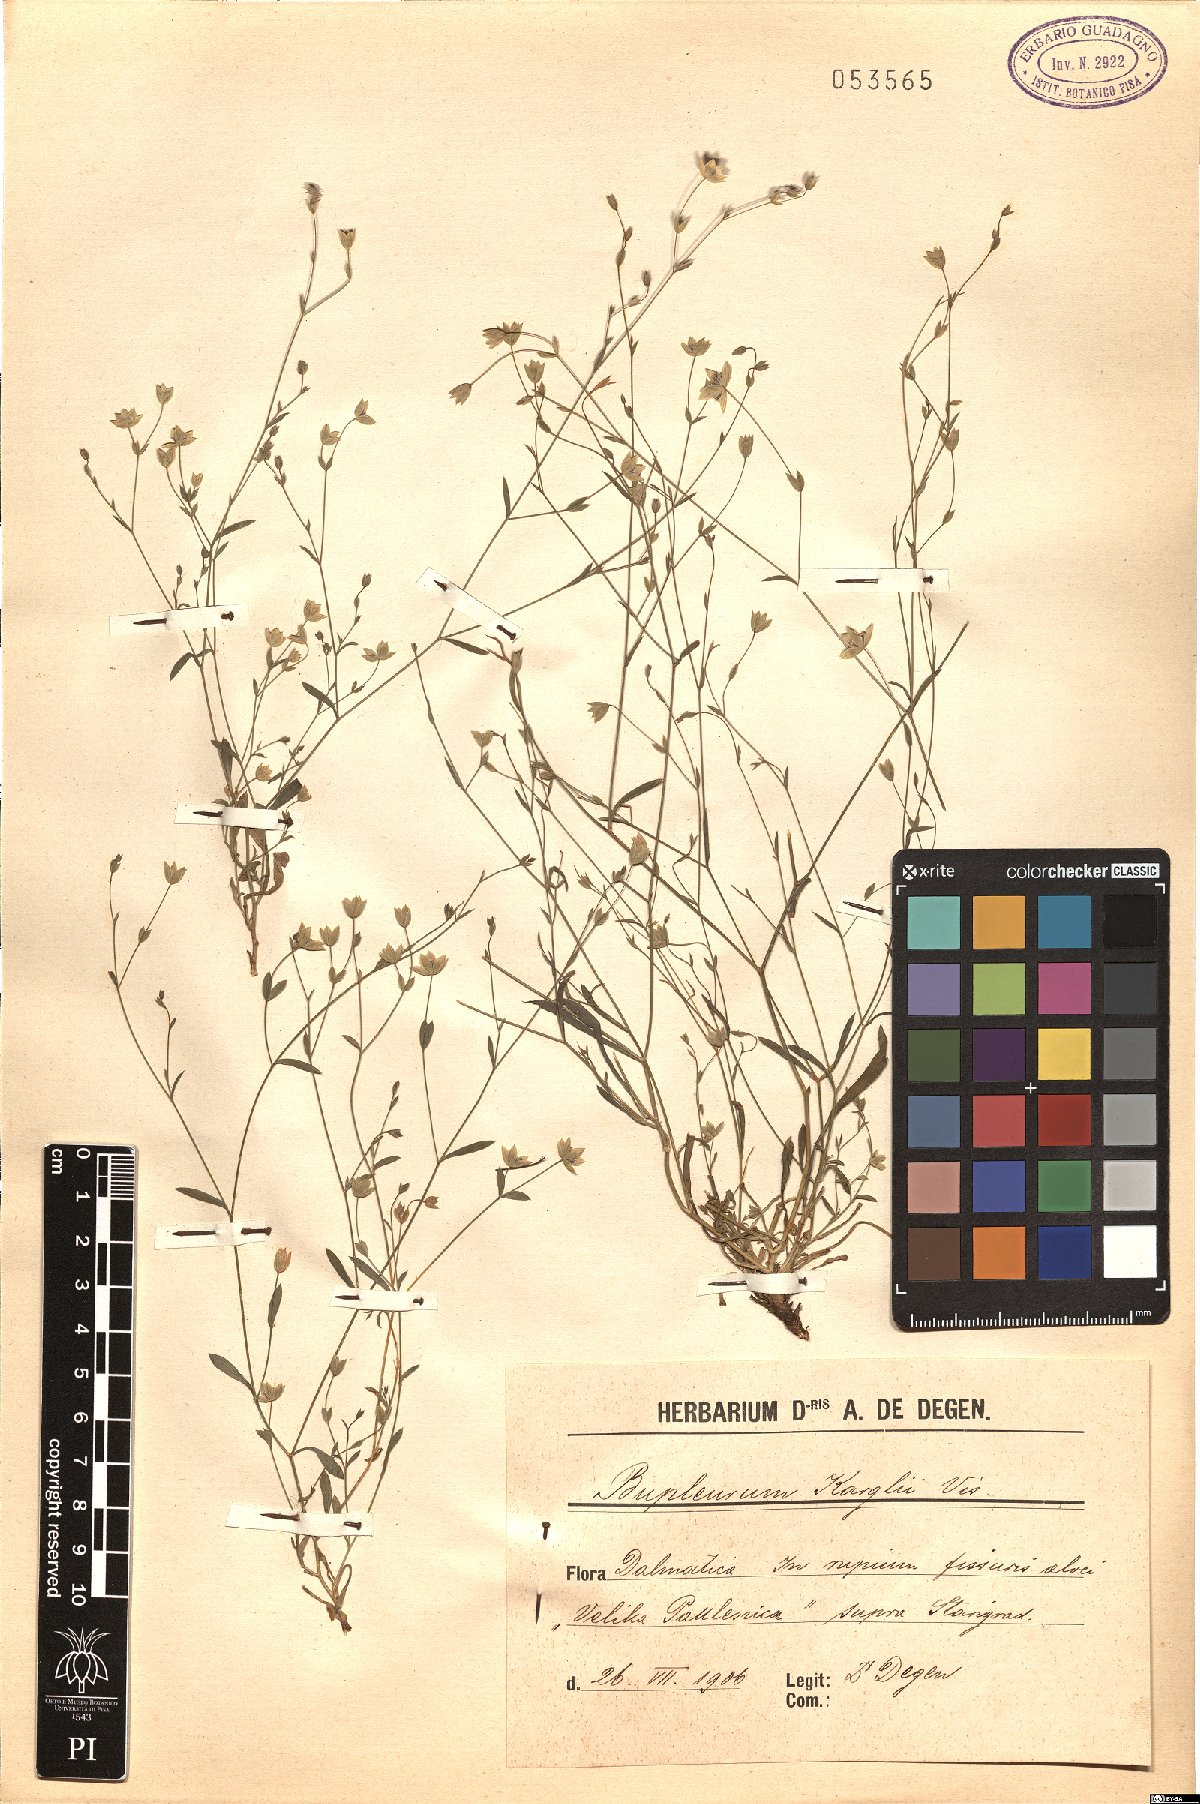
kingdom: Plantae
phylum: Tracheophyta
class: Magnoliopsida
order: Apiales
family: Apiaceae
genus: Bupleurum
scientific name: Bupleurum karglii
